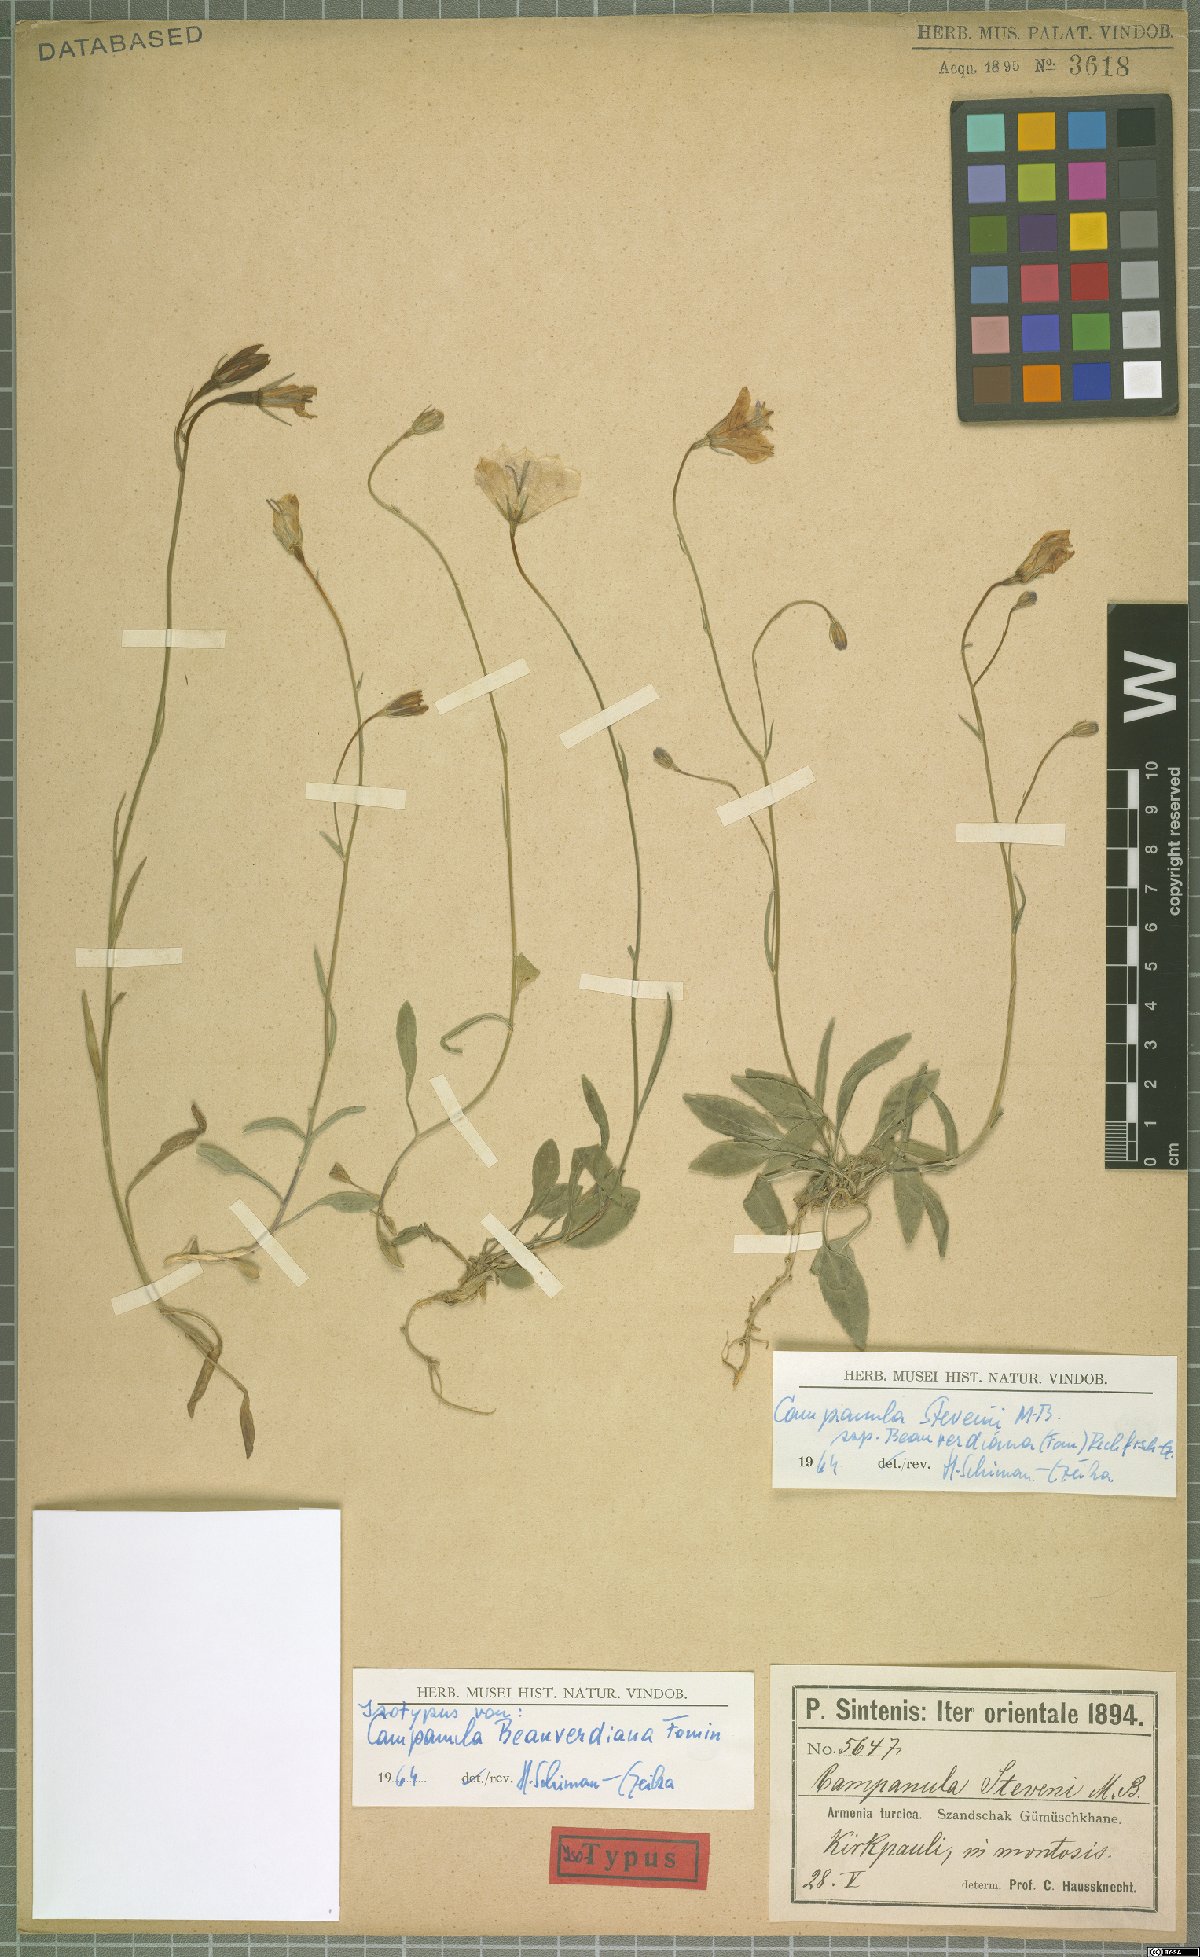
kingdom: Plantae
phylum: Tracheophyta
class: Magnoliopsida
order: Asterales
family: Campanulaceae
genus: Campanula
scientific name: Campanula stevenii
